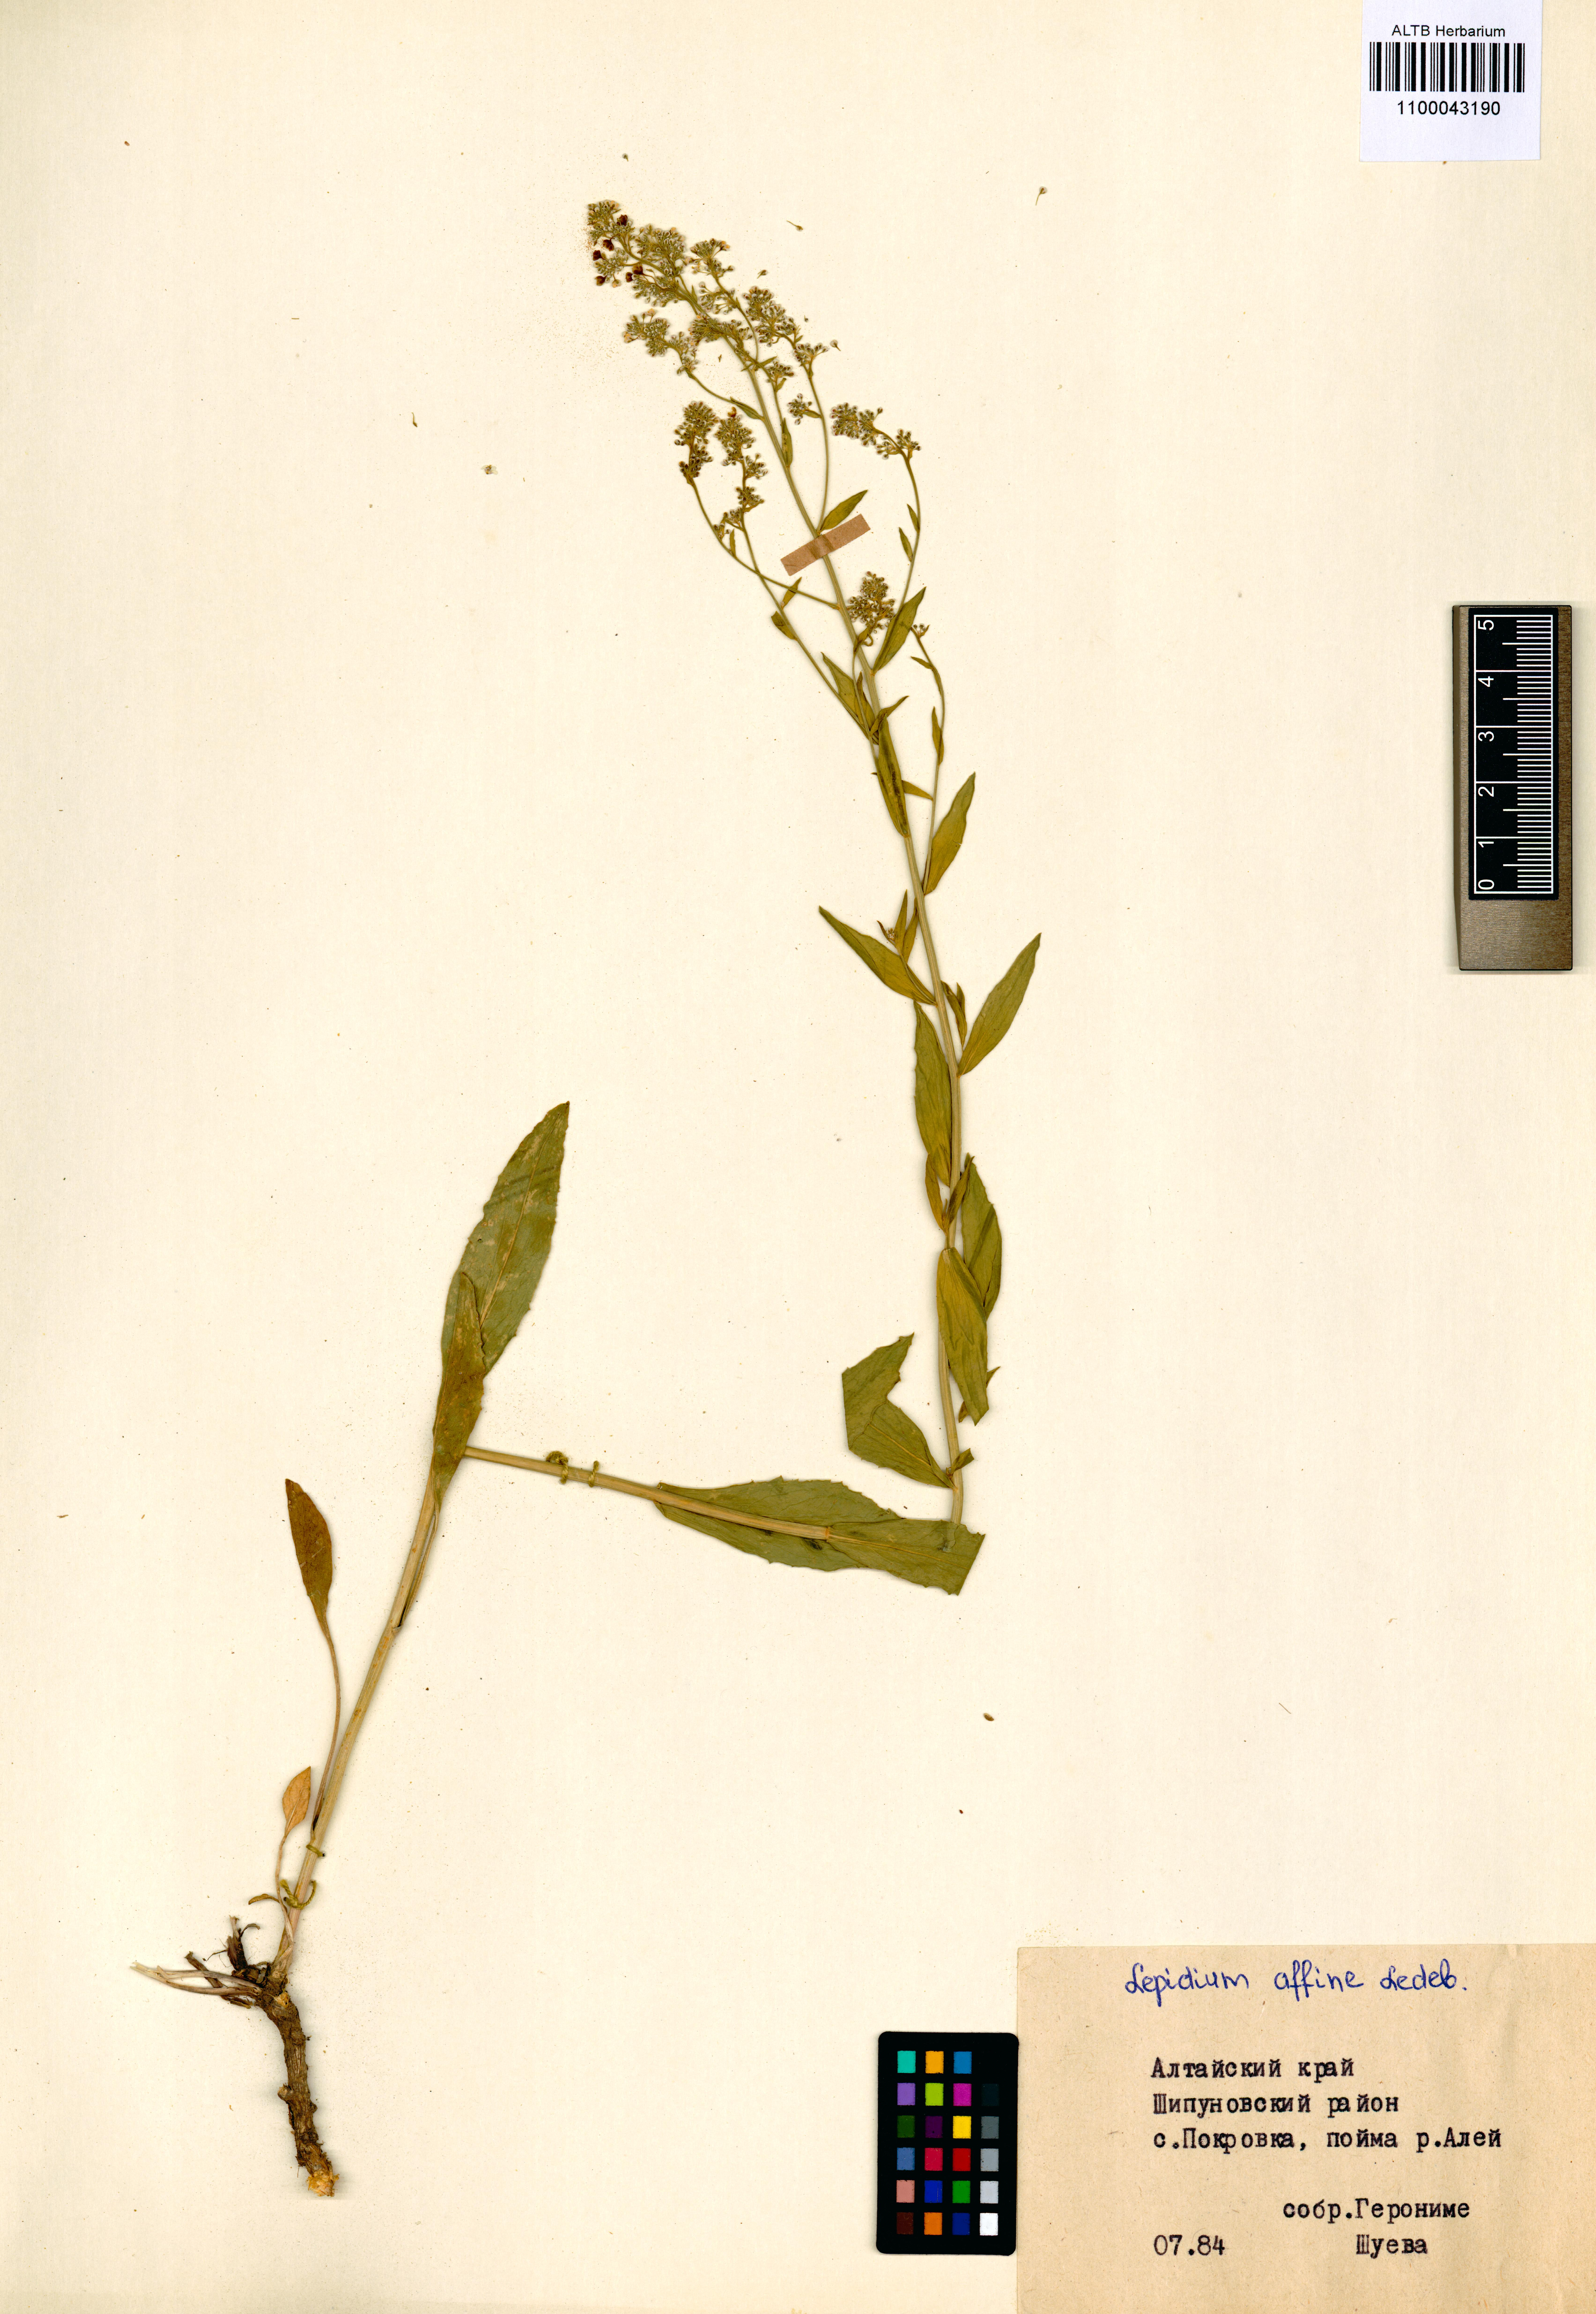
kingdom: Plantae
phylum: Tracheophyta
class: Magnoliopsida
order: Brassicales
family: Brassicaceae
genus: Lepidium
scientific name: Lepidium latifolium
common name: Dittander
